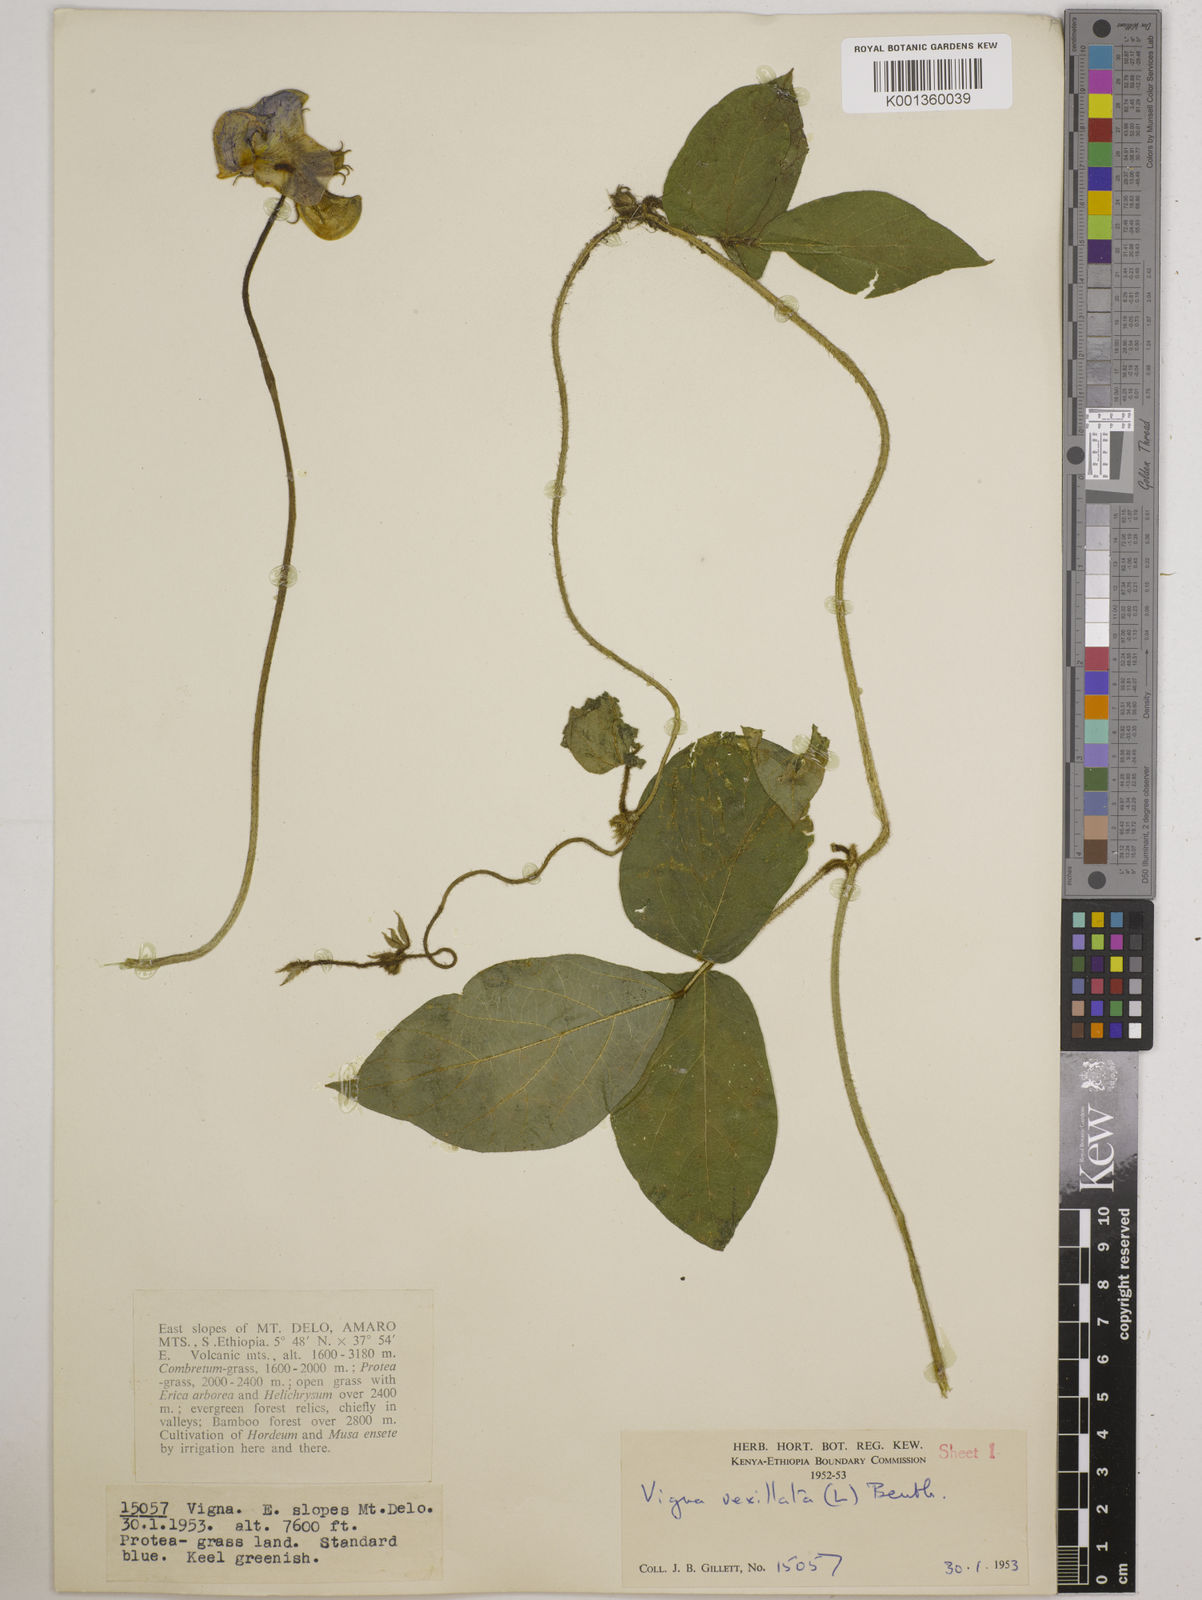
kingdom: Plantae
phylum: Tracheophyta
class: Magnoliopsida
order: Fabales
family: Fabaceae
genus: Vigna
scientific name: Vigna vexillata
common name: Zombi pea
